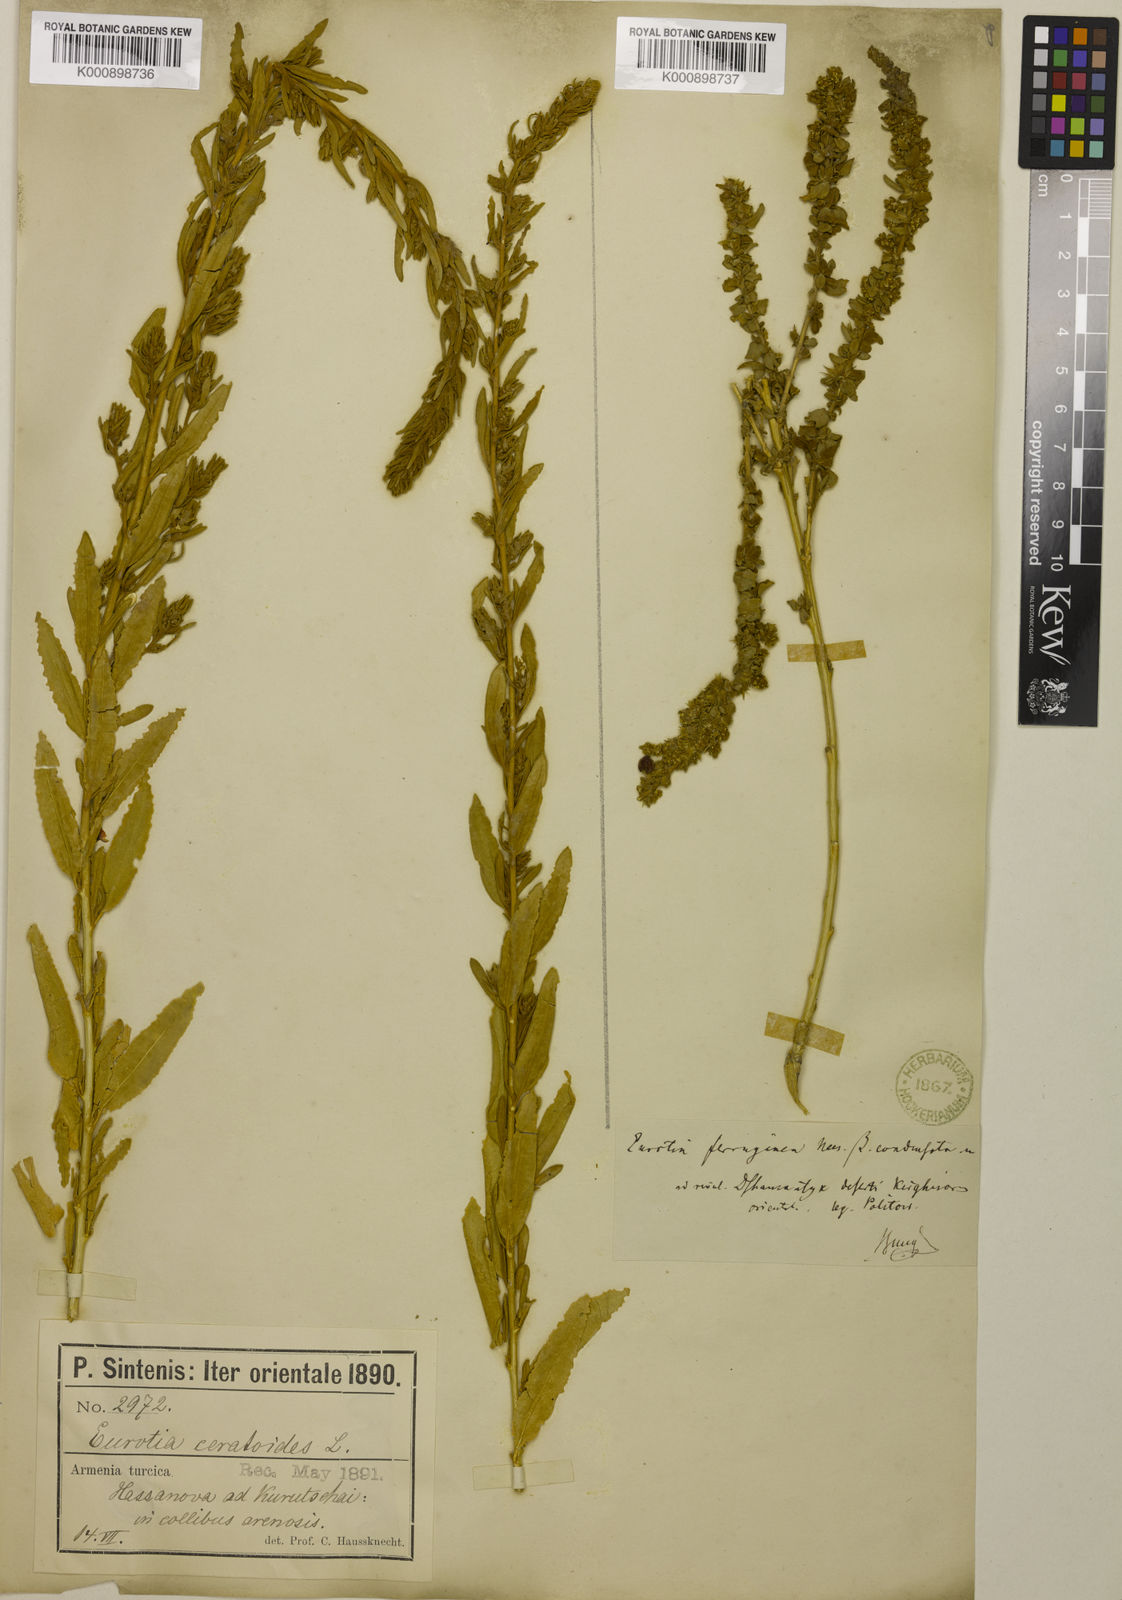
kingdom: Plantae
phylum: Tracheophyta
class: Magnoliopsida
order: Caryophyllales
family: Amaranthaceae
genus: Krascheninnikovia
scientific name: Krascheninnikovia ceratoides
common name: Pamirian winterfat
